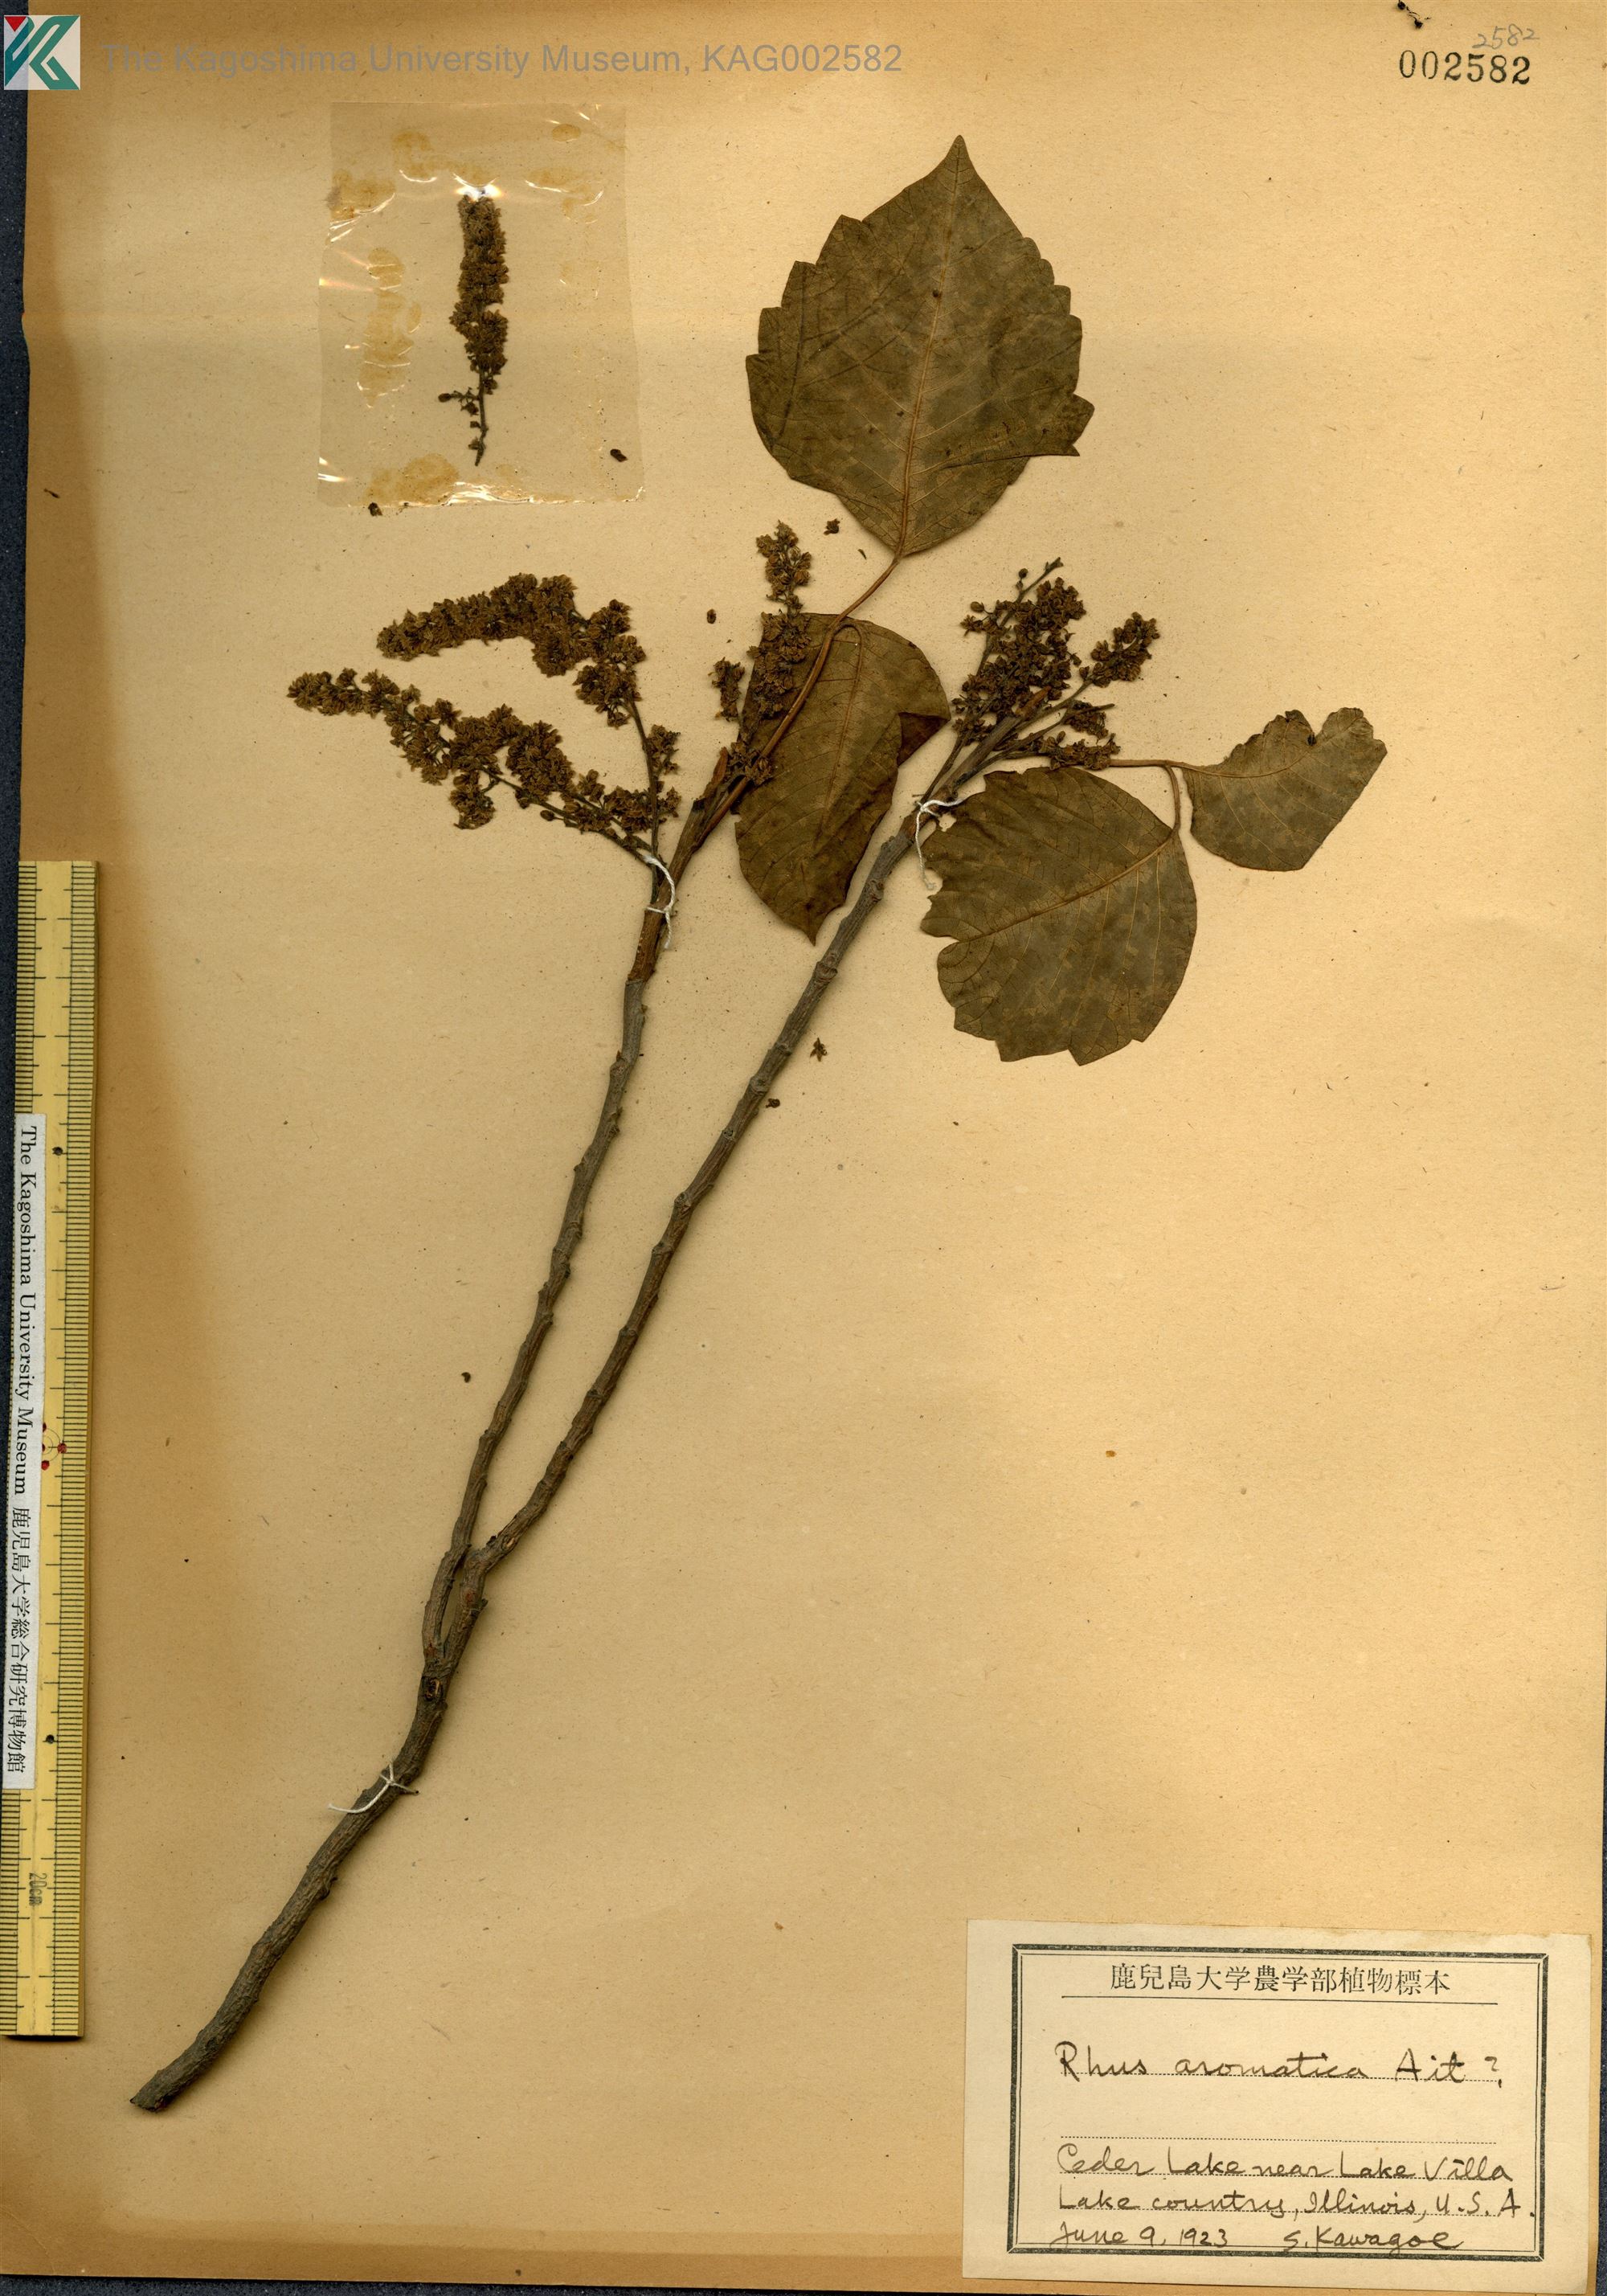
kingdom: Plantae
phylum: Tracheophyta
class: Magnoliopsida
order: Sapindales
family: Anacardiaceae
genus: Rhus
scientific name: Rhus aromatica
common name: Aromatic sumac
